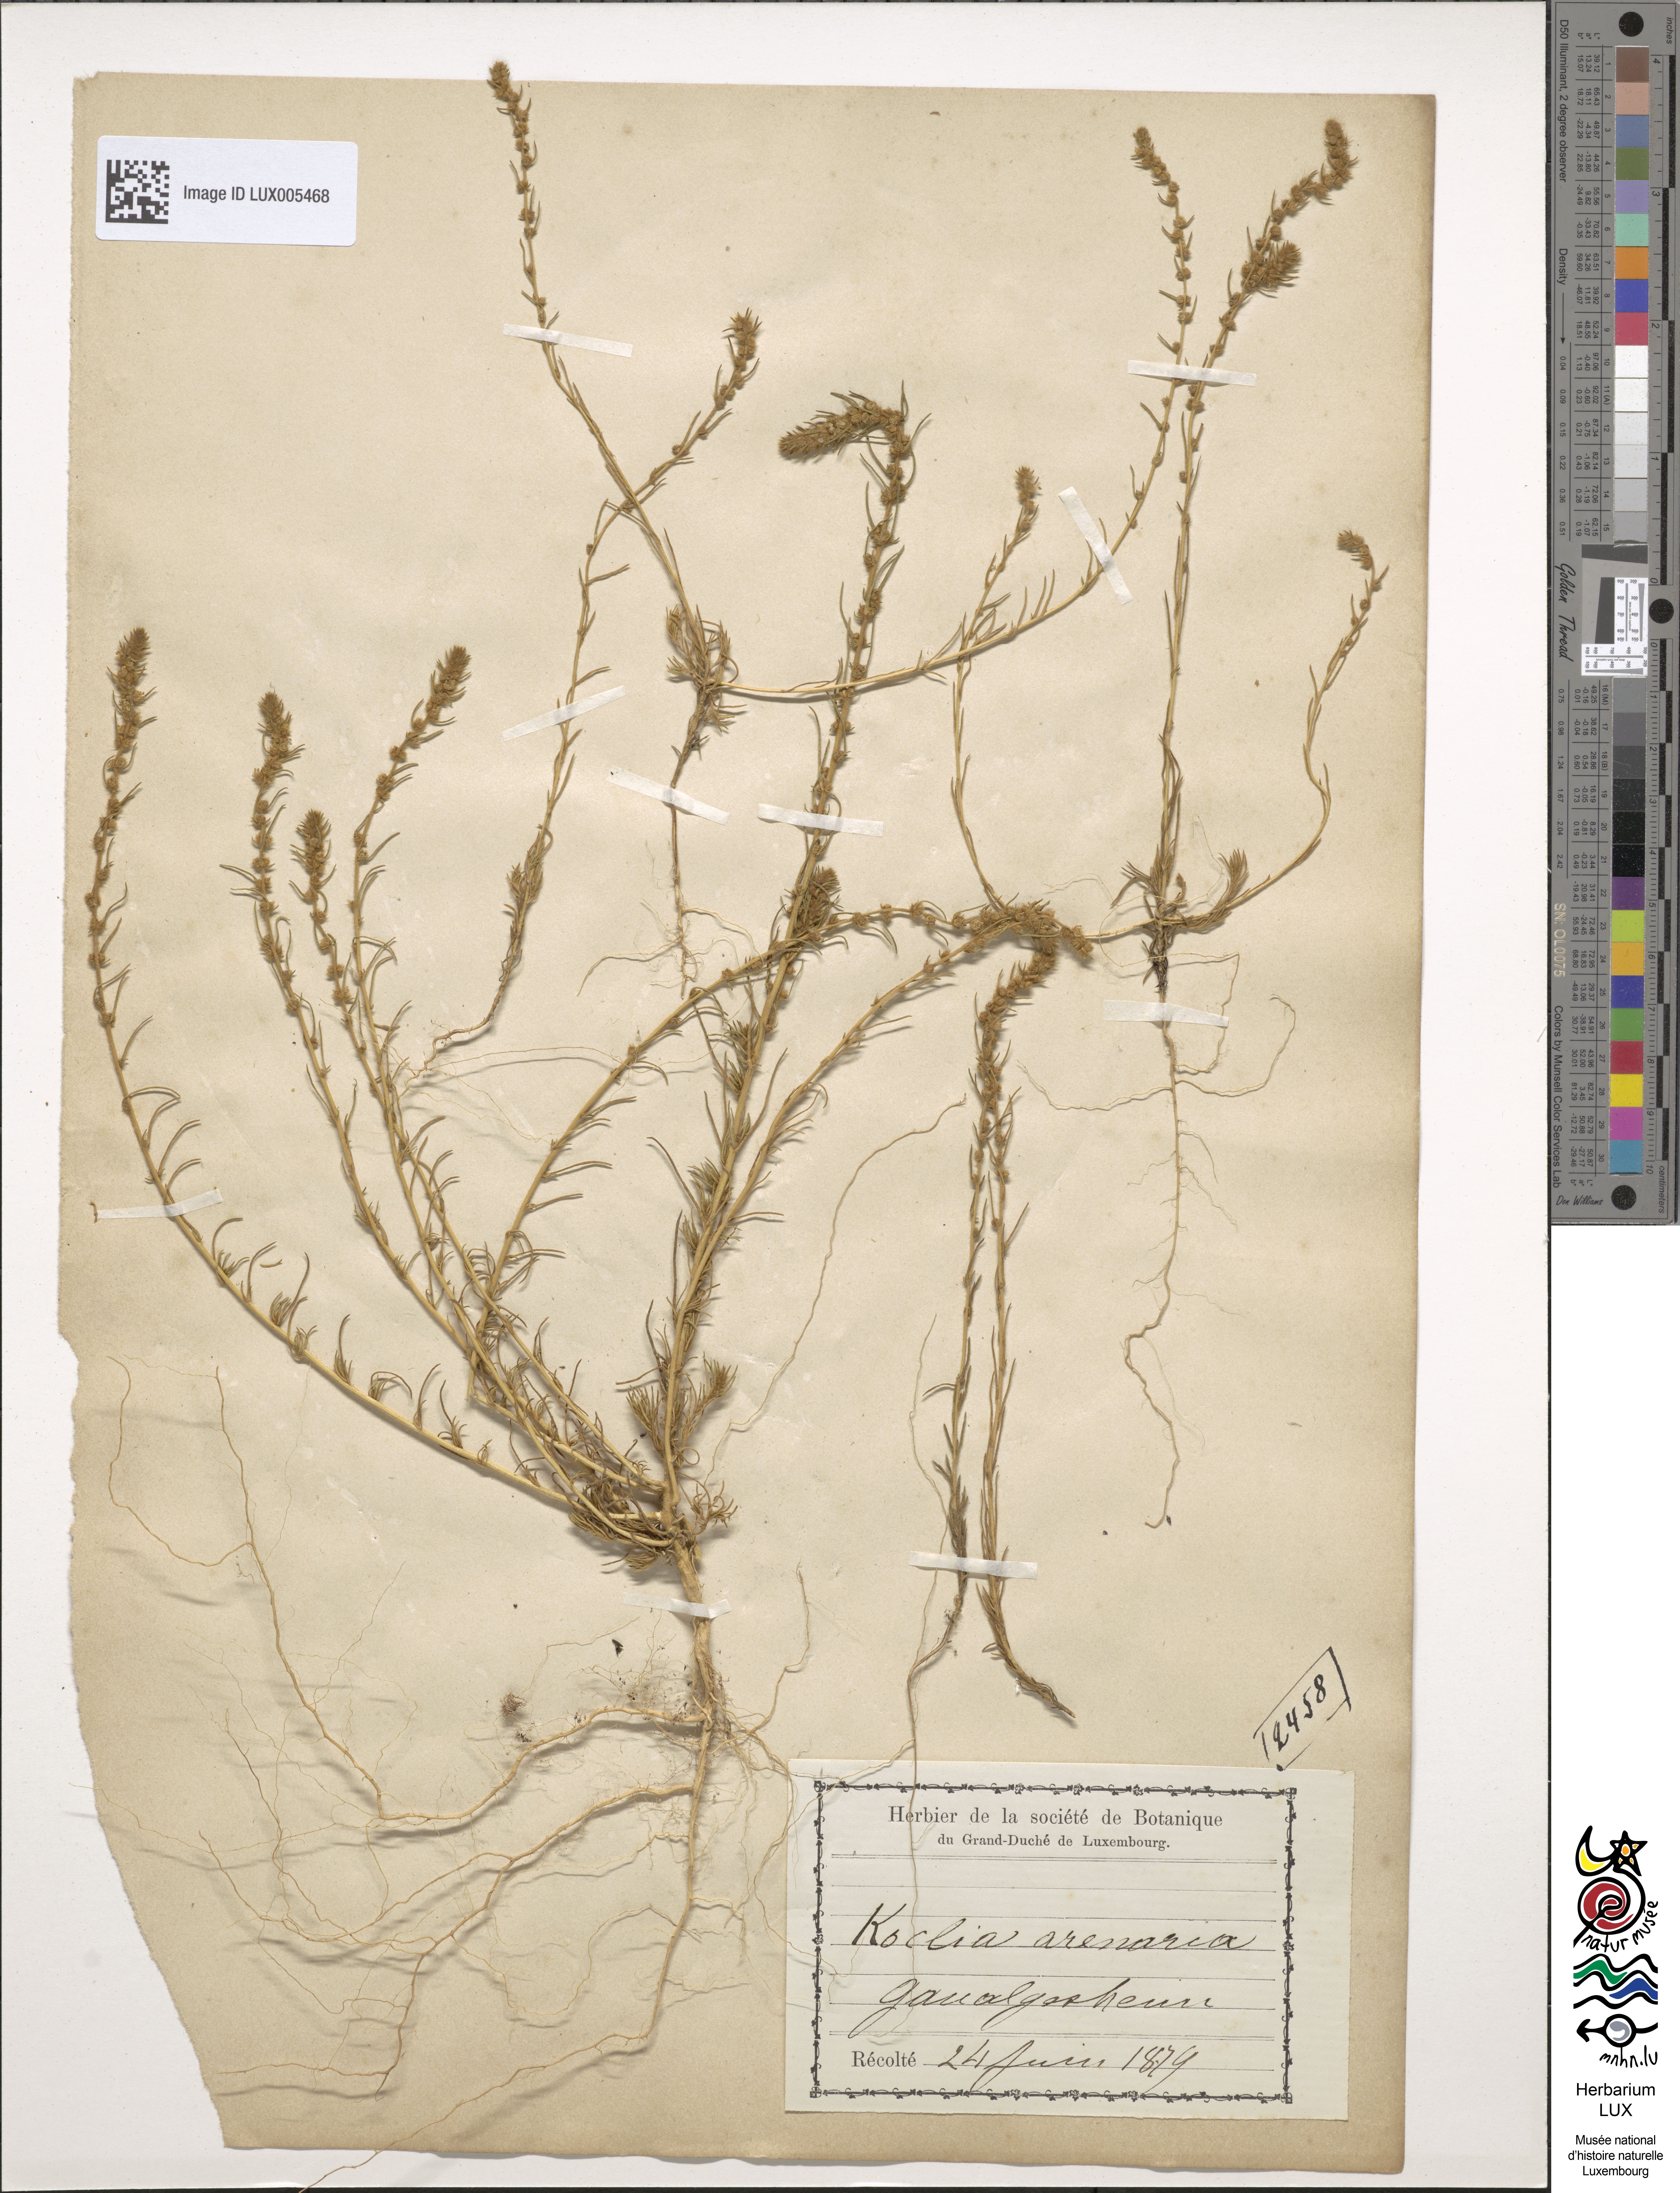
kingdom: Plantae
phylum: Tracheophyta
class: Magnoliopsida
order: Caryophyllales
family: Amaranthaceae
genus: Bassia
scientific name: Bassia laniflora
